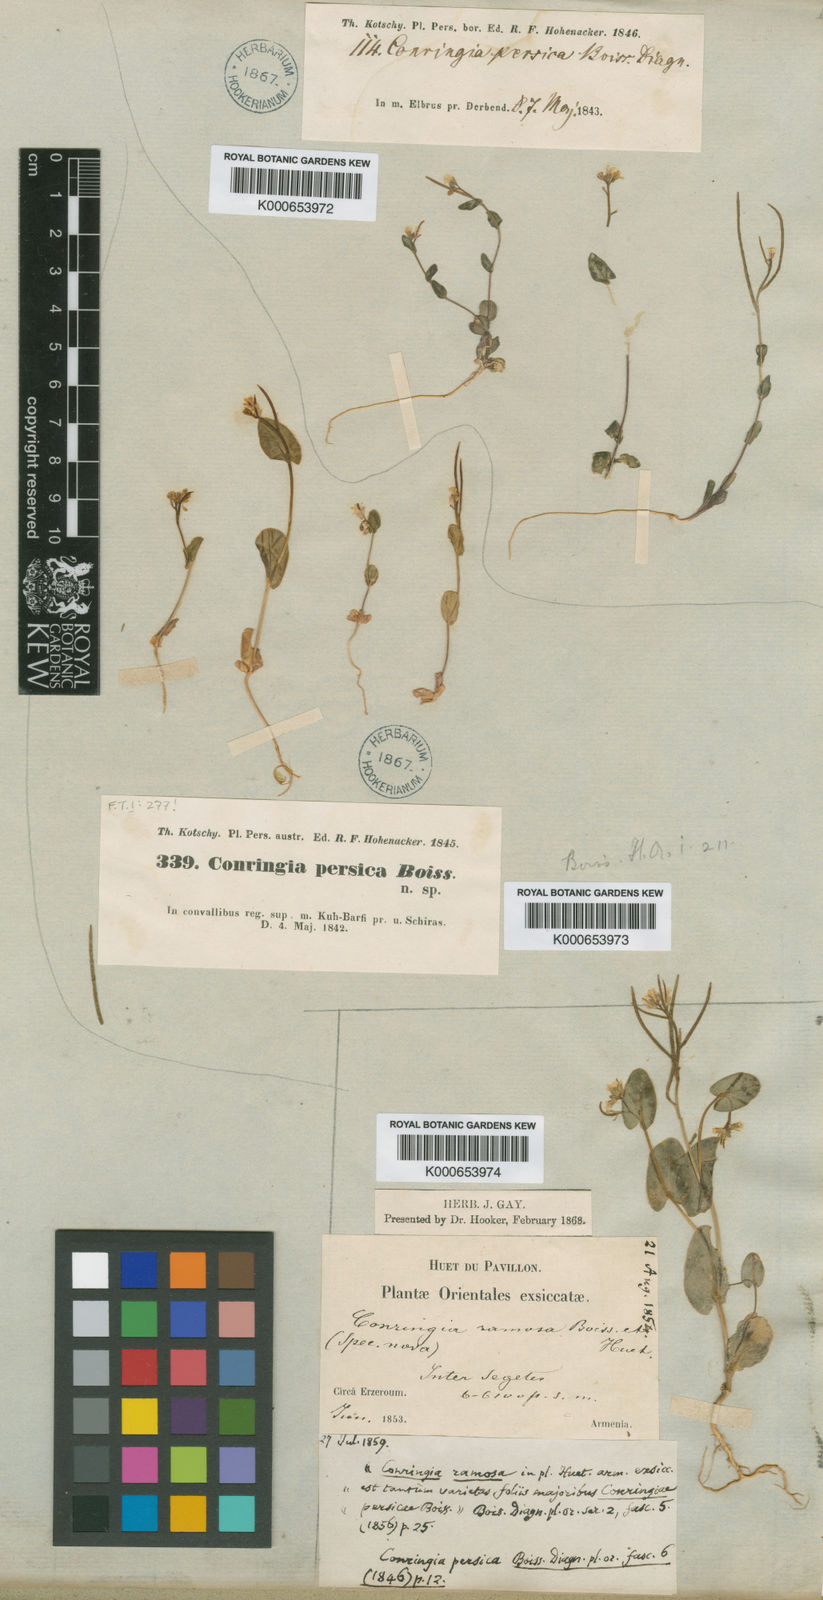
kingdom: Plantae
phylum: Tracheophyta
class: Magnoliopsida
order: Brassicales
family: Brassicaceae
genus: Conringia
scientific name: Conringia persica
